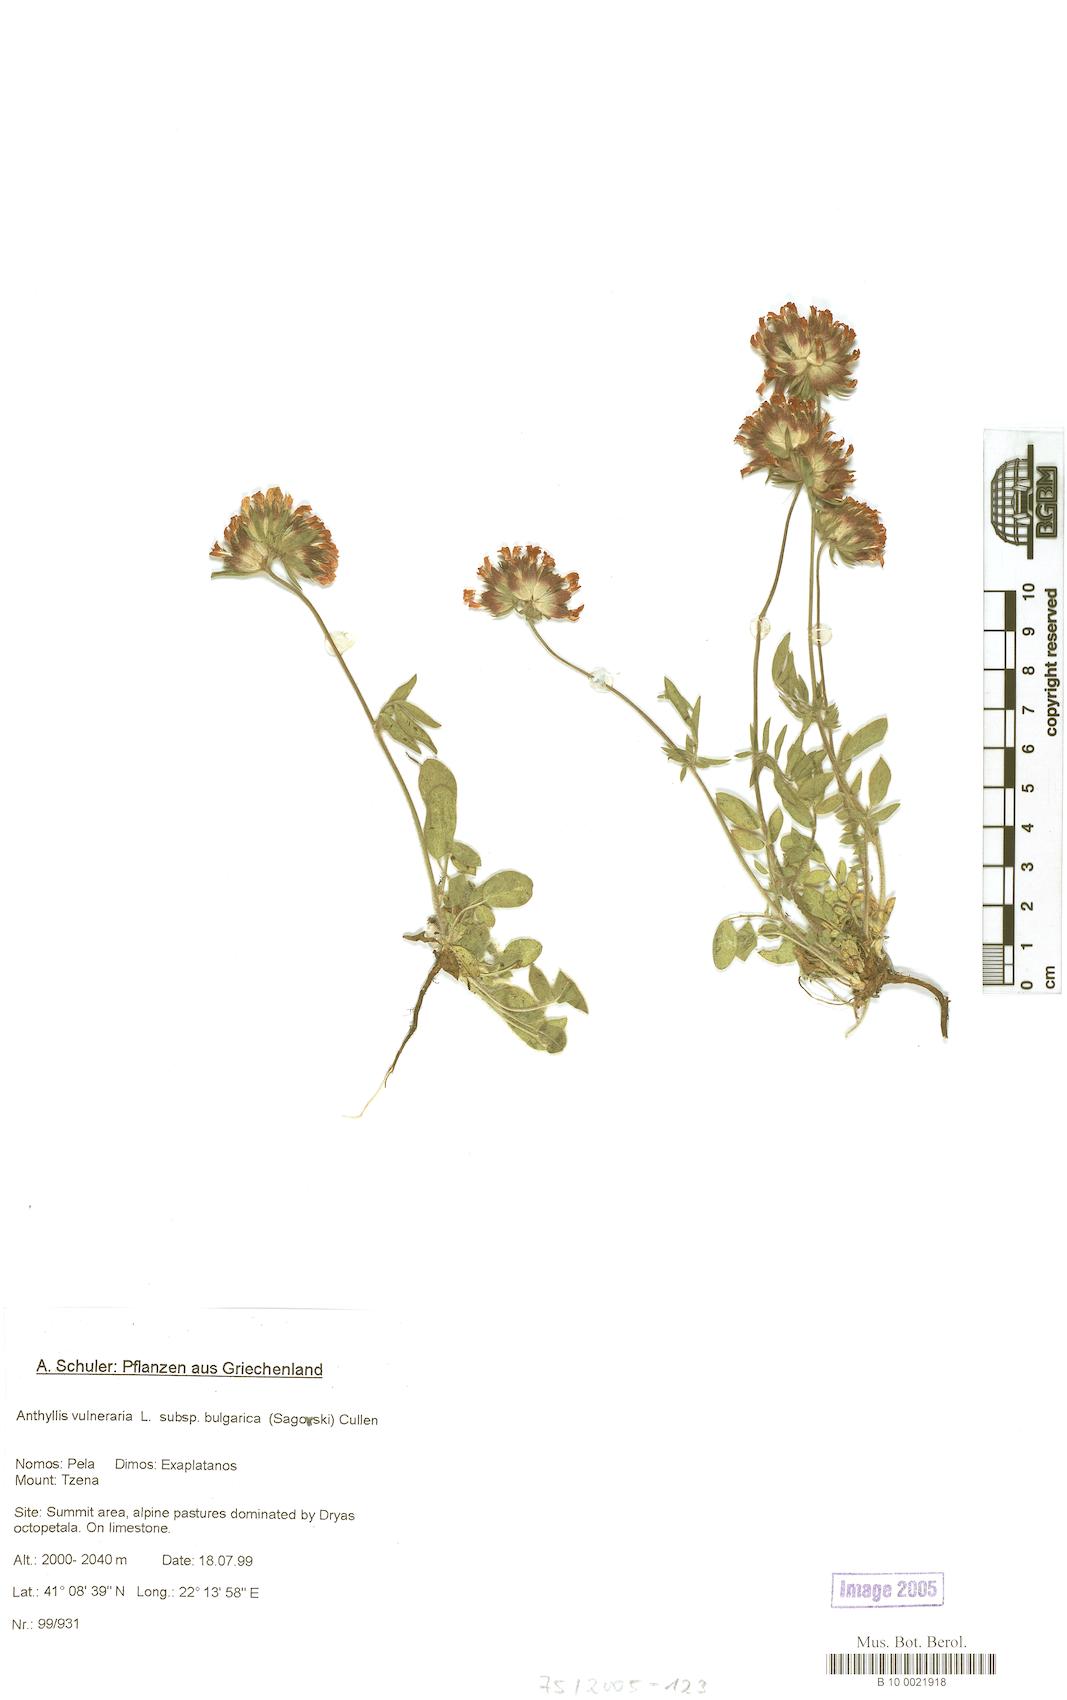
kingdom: Plantae
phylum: Tracheophyta
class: Magnoliopsida
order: Fabales
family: Fabaceae
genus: Anthyllis
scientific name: Anthyllis vulneraria
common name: Kidney vetch
